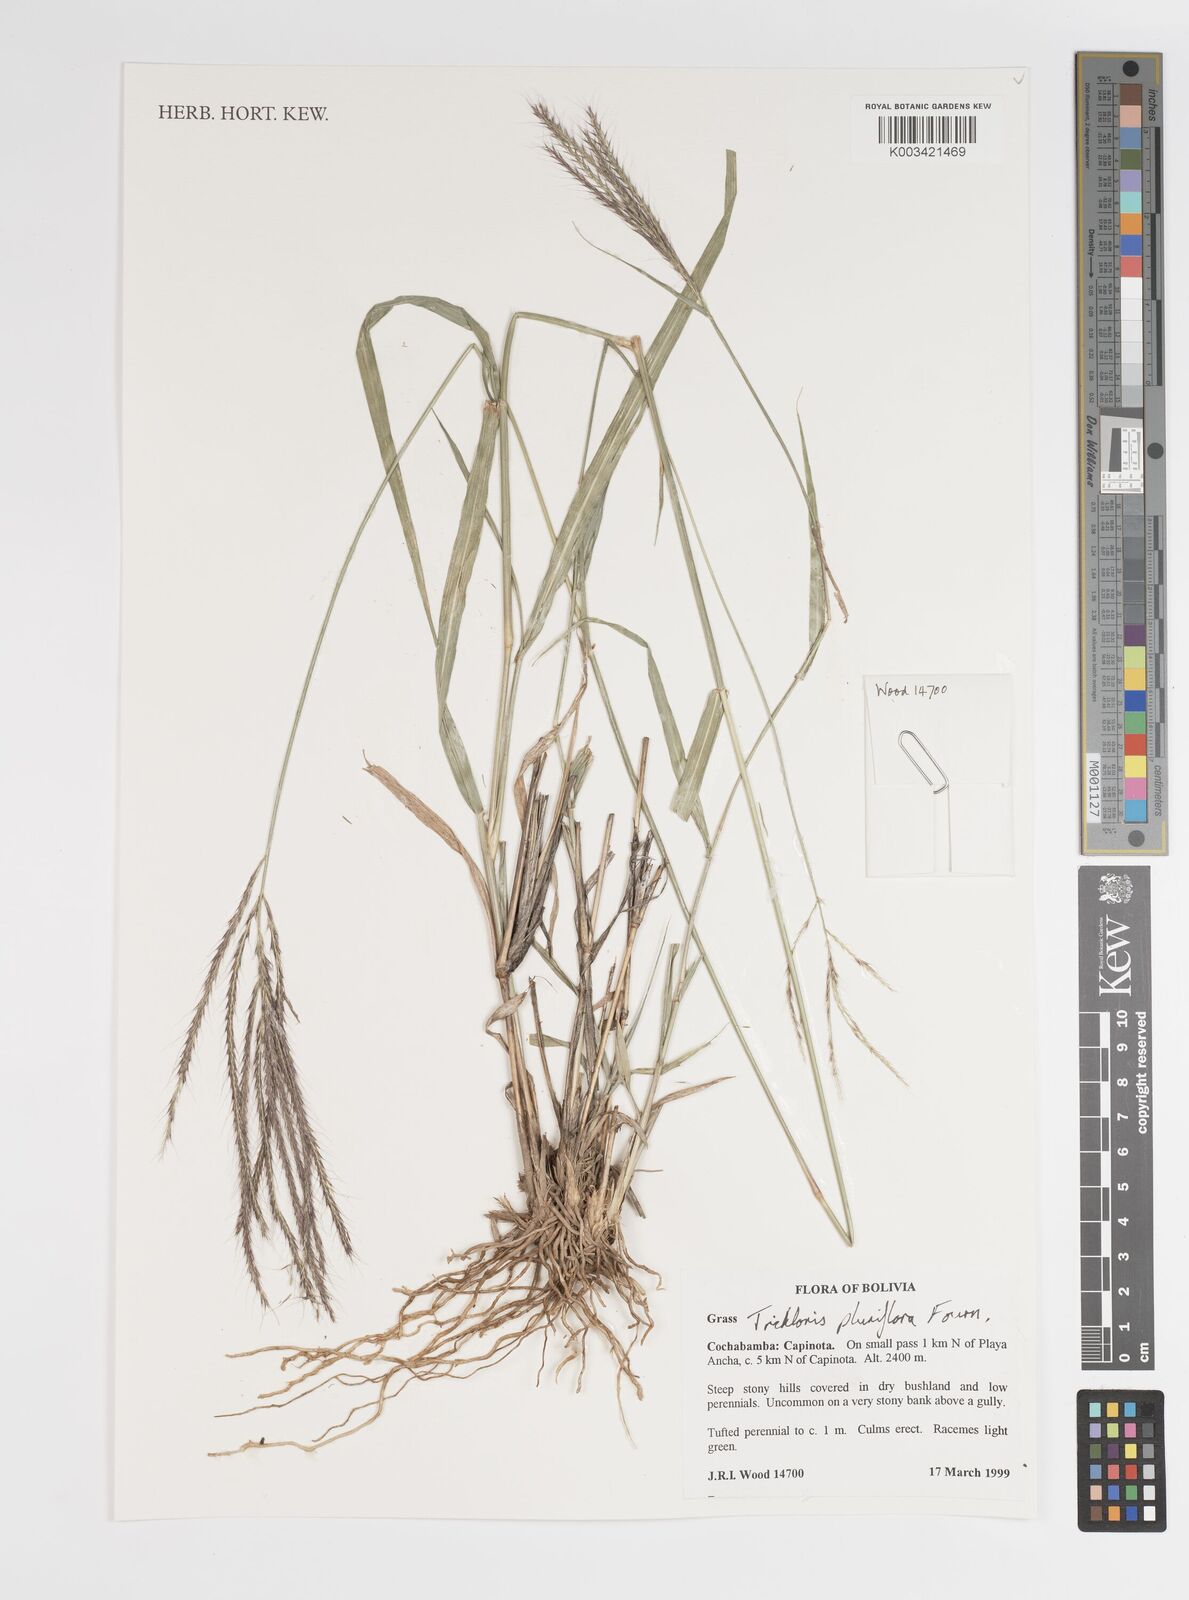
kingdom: Plantae
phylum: Tracheophyta
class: Liliopsida
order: Poales
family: Poaceae
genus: Leptochloa
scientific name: Leptochloa pluriflora
